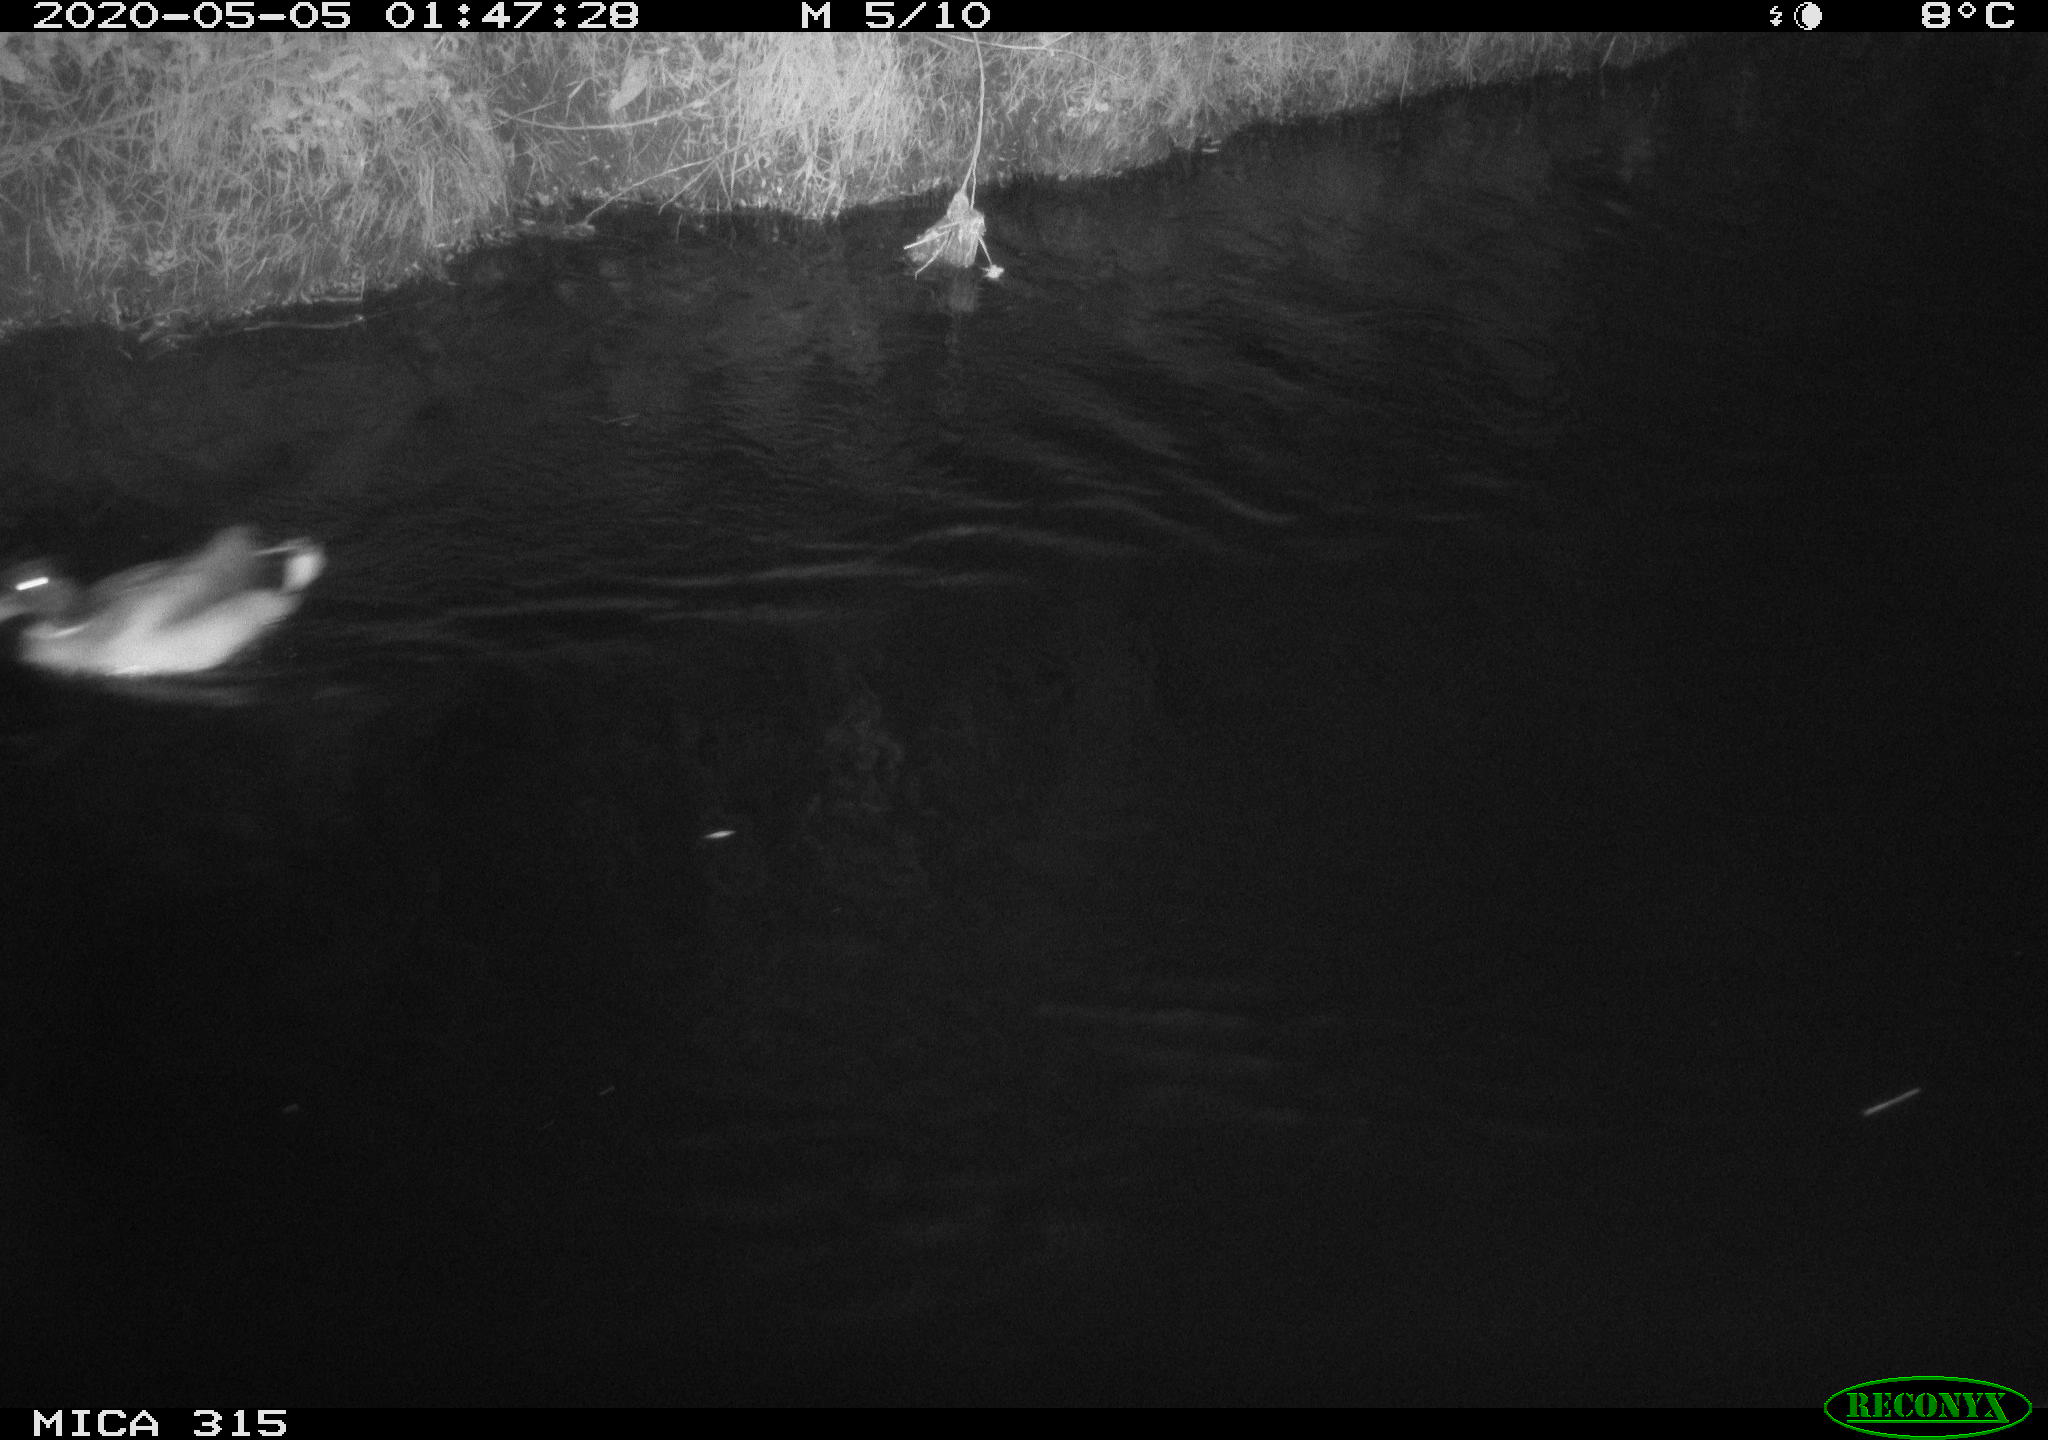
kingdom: Animalia
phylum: Chordata
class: Aves
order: Anseriformes
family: Anatidae
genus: Anas
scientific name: Anas platyrhynchos
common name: Mallard
